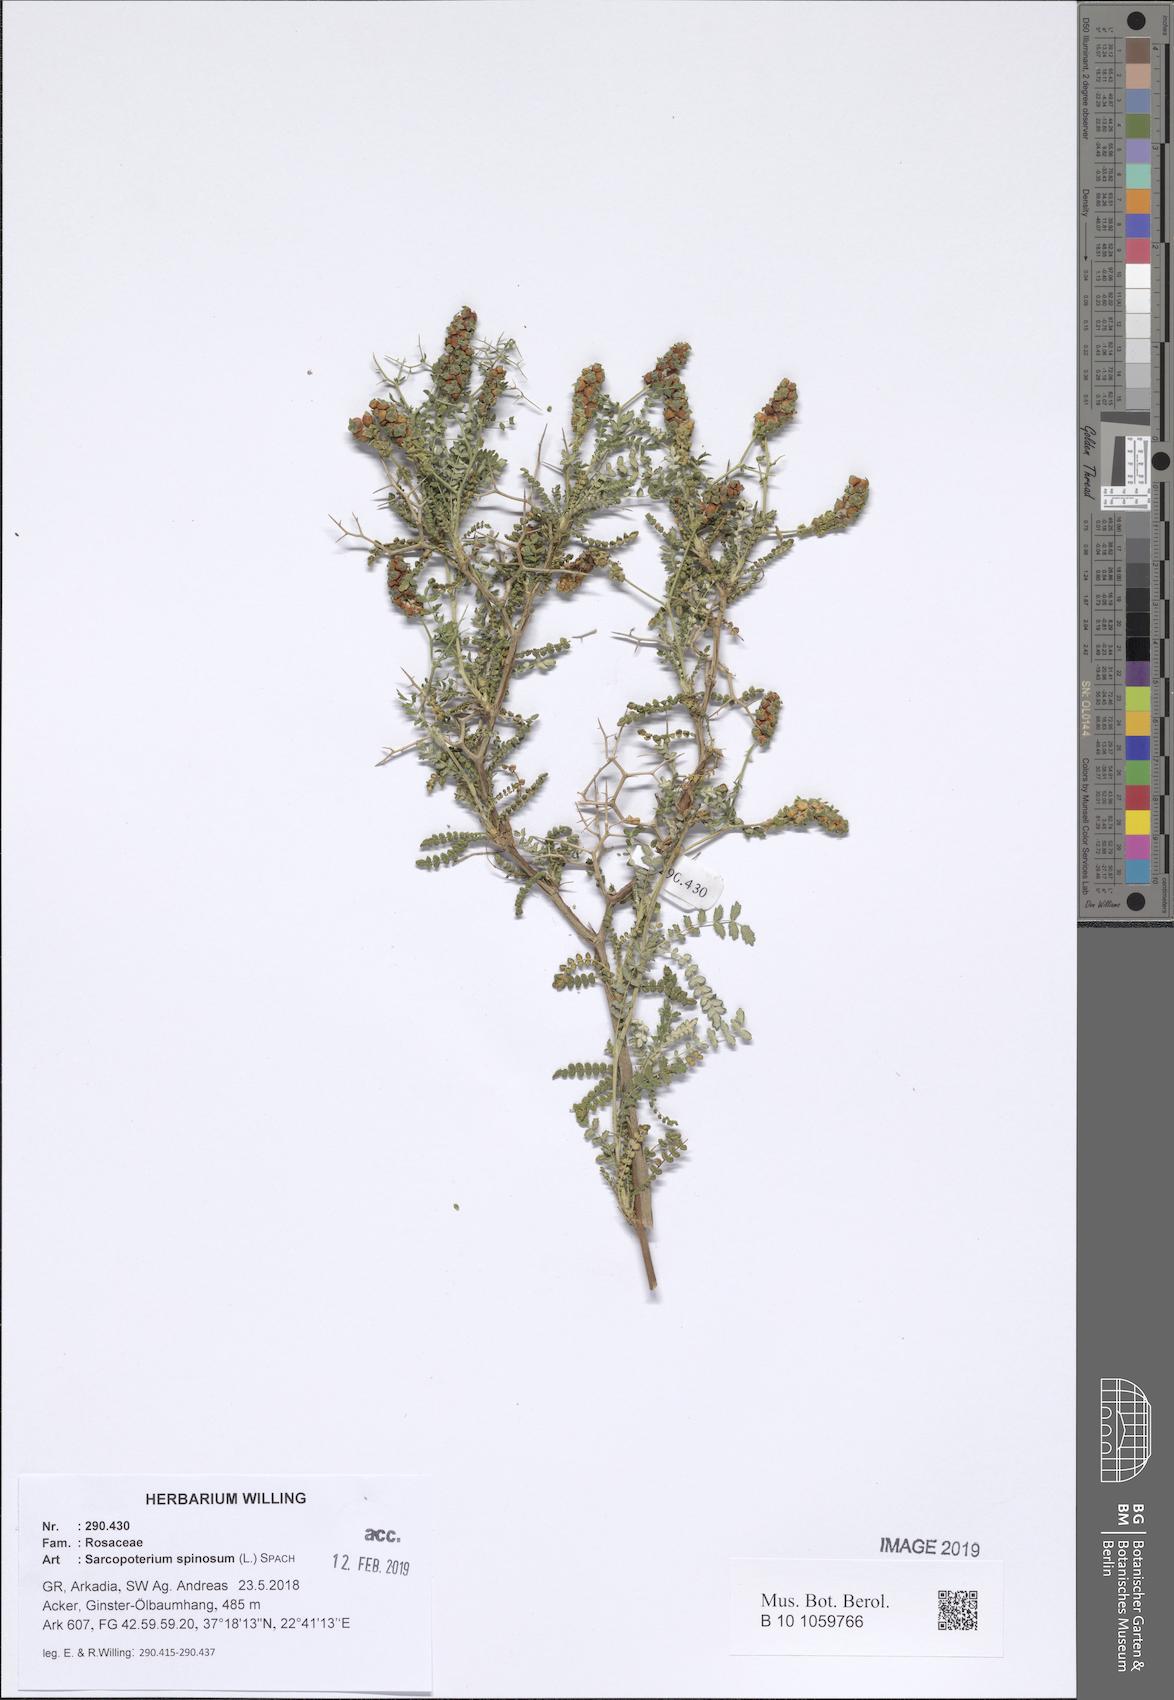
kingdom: Plantae
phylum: Tracheophyta
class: Magnoliopsida
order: Rosales
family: Rosaceae
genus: Sarcopoterium
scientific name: Sarcopoterium spinosum
